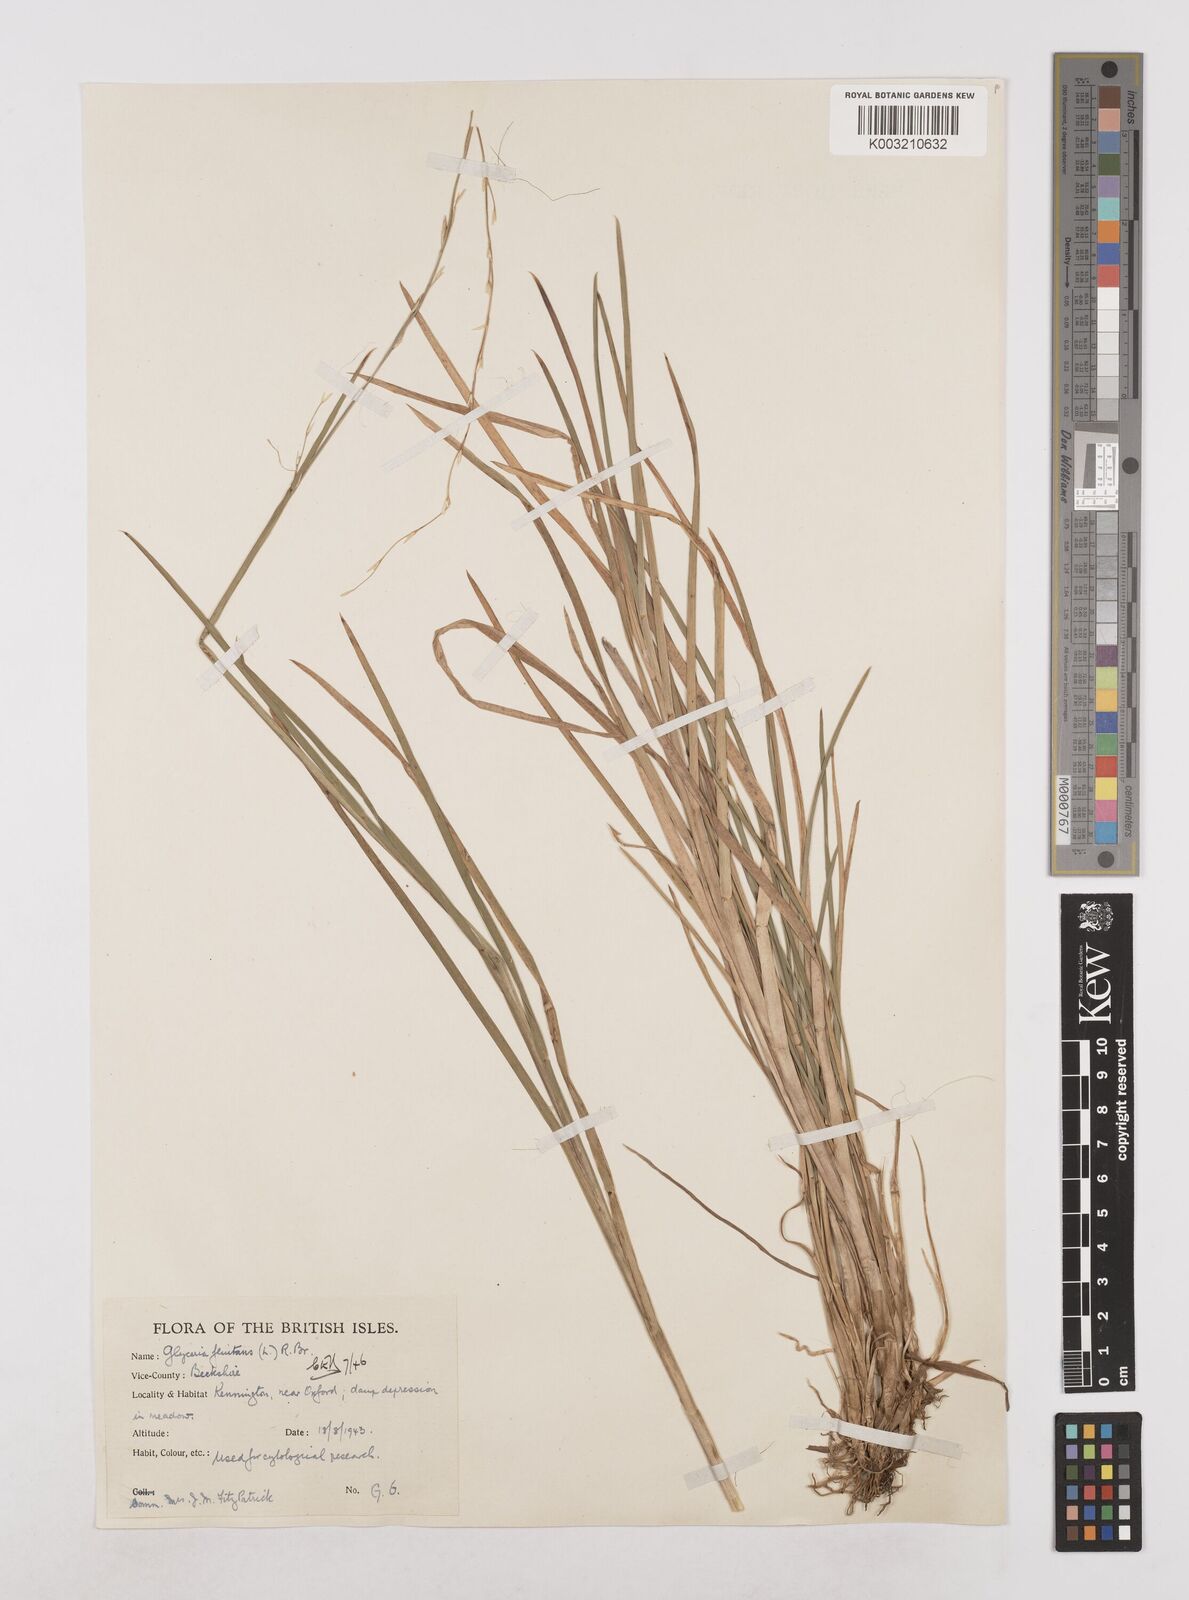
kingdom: Plantae
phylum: Tracheophyta
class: Liliopsida
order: Poales
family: Poaceae
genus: Glyceria
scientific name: Glyceria fluitans
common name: Floating sweet-grass
